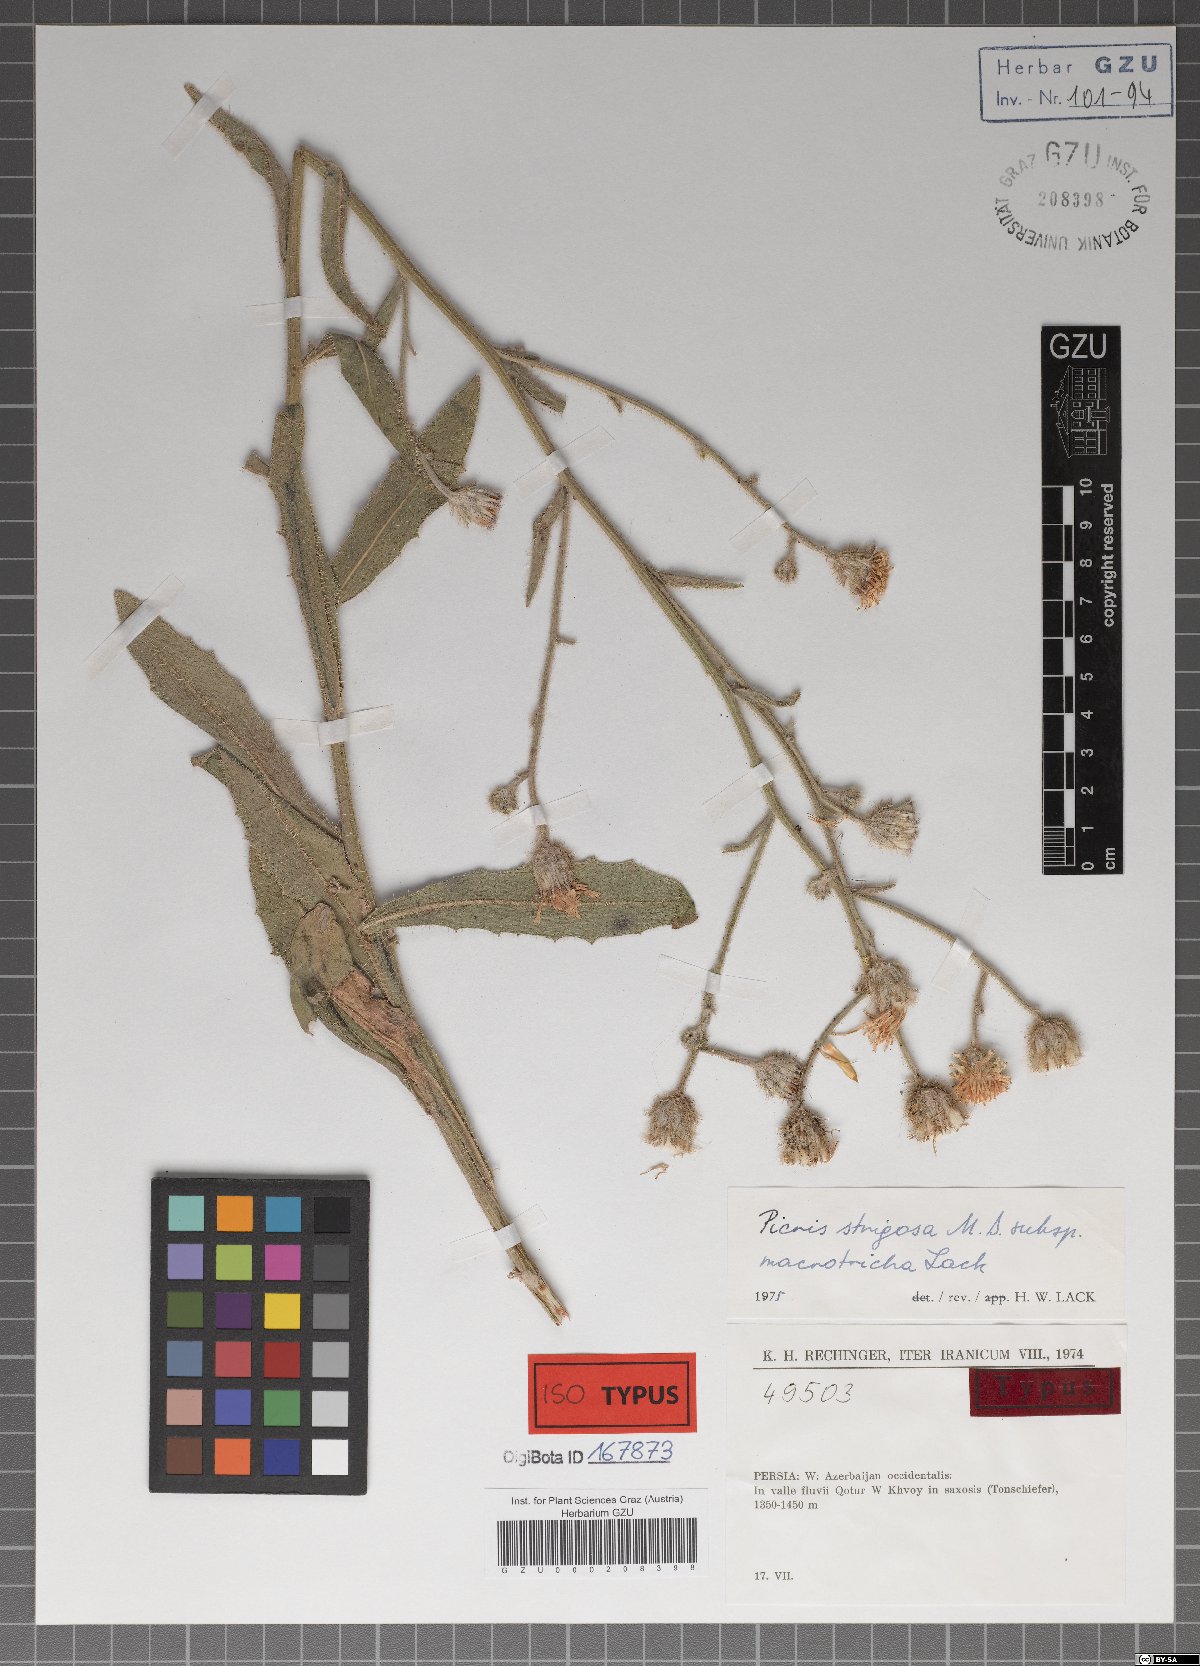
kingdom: Plantae
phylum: Tracheophyta
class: Magnoliopsida
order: Asterales
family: Asteraceae
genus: Picris
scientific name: Picris strigosa
